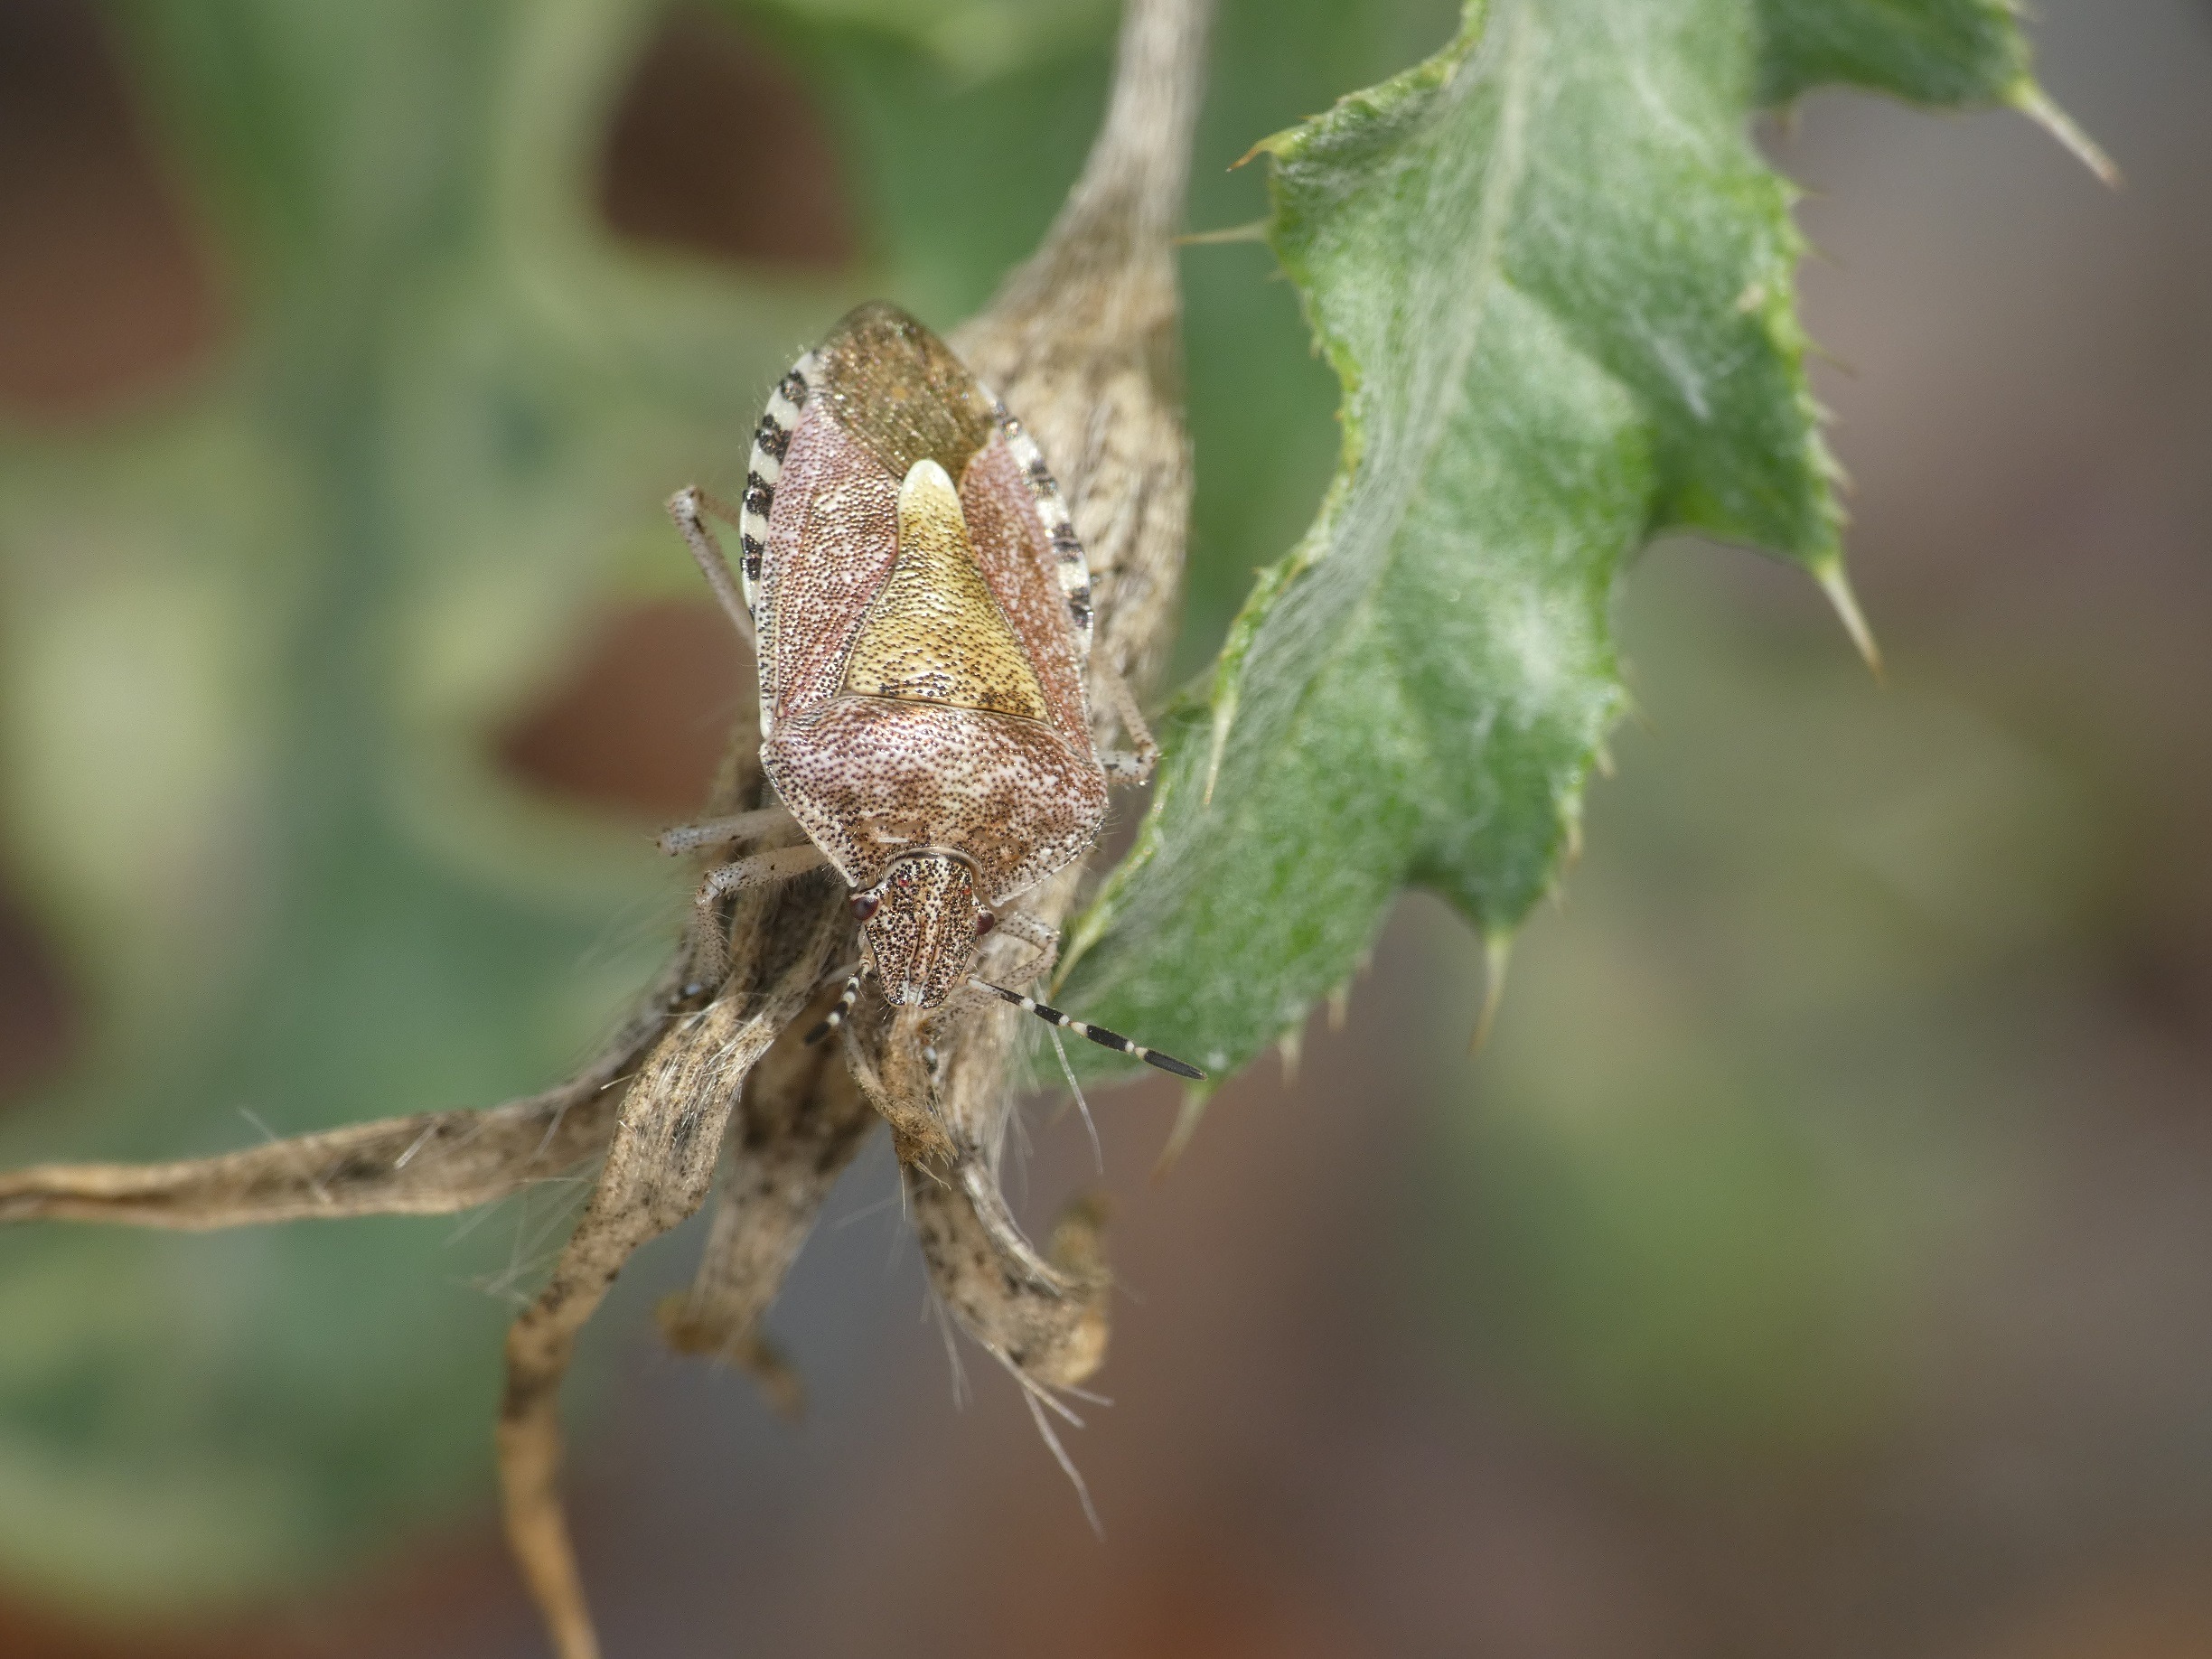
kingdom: Animalia
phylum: Arthropoda
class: Insecta
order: Hemiptera
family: Pentatomidae
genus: Dolycoris
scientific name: Dolycoris baccarum
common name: Almindelig bærtæge
